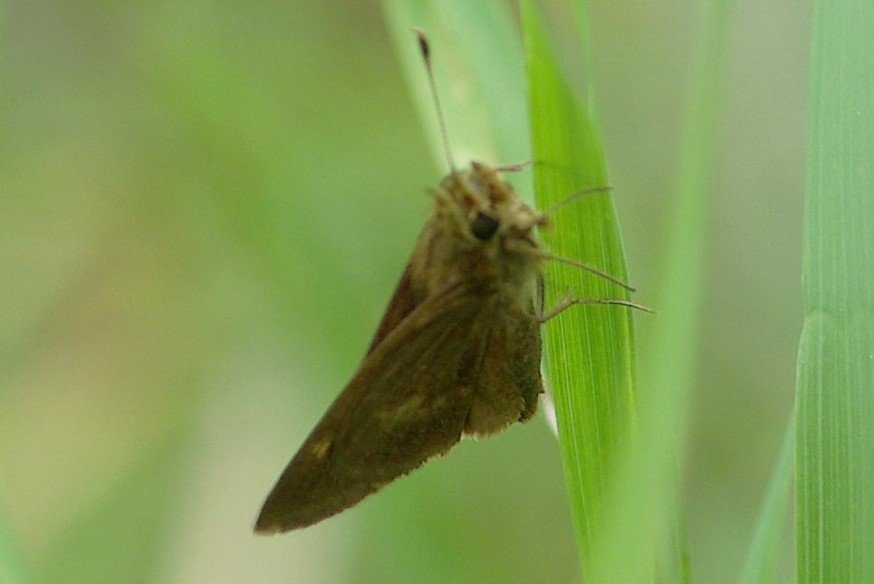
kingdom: Animalia
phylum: Arthropoda
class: Insecta
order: Lepidoptera
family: Hesperiidae
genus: Polites
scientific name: Polites egeremet
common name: Northern Broken-Dash
